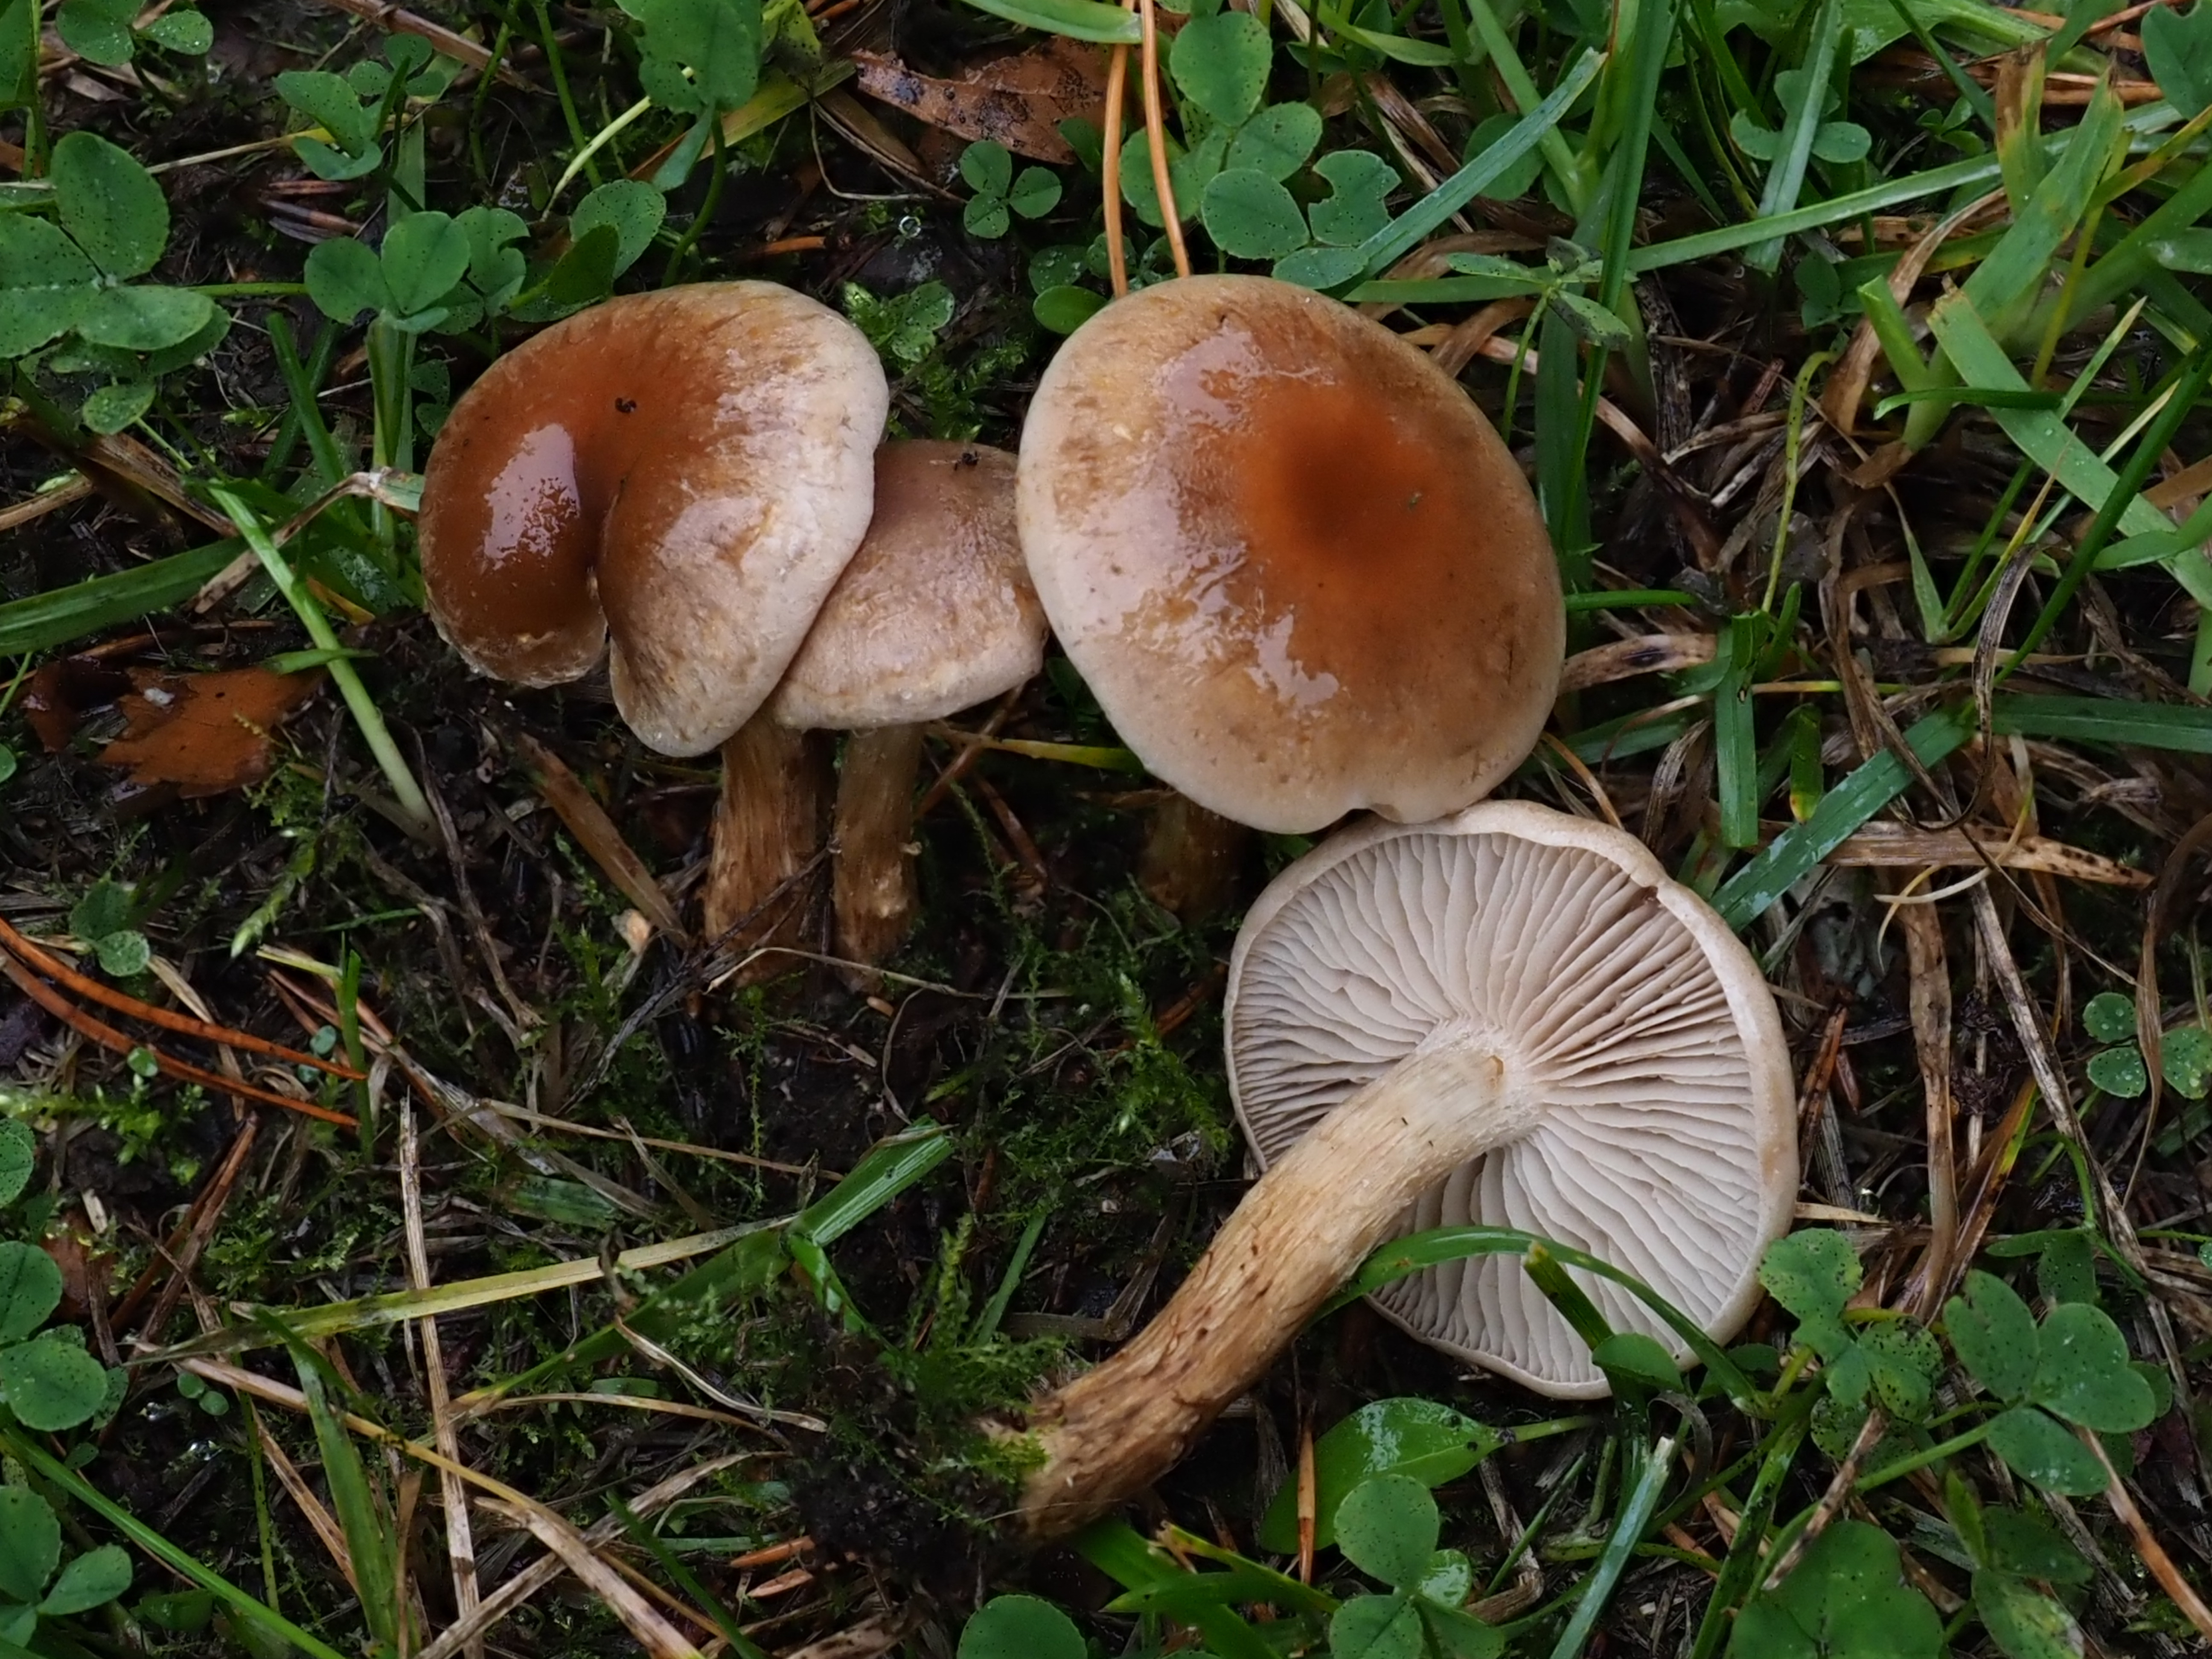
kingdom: Fungi
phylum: Basidiomycota
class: Agaricomycetes
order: Agaricales
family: Hymenogastraceae
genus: Hebeloma
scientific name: Hebeloma mesophaeum
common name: Veiled poisonpie
